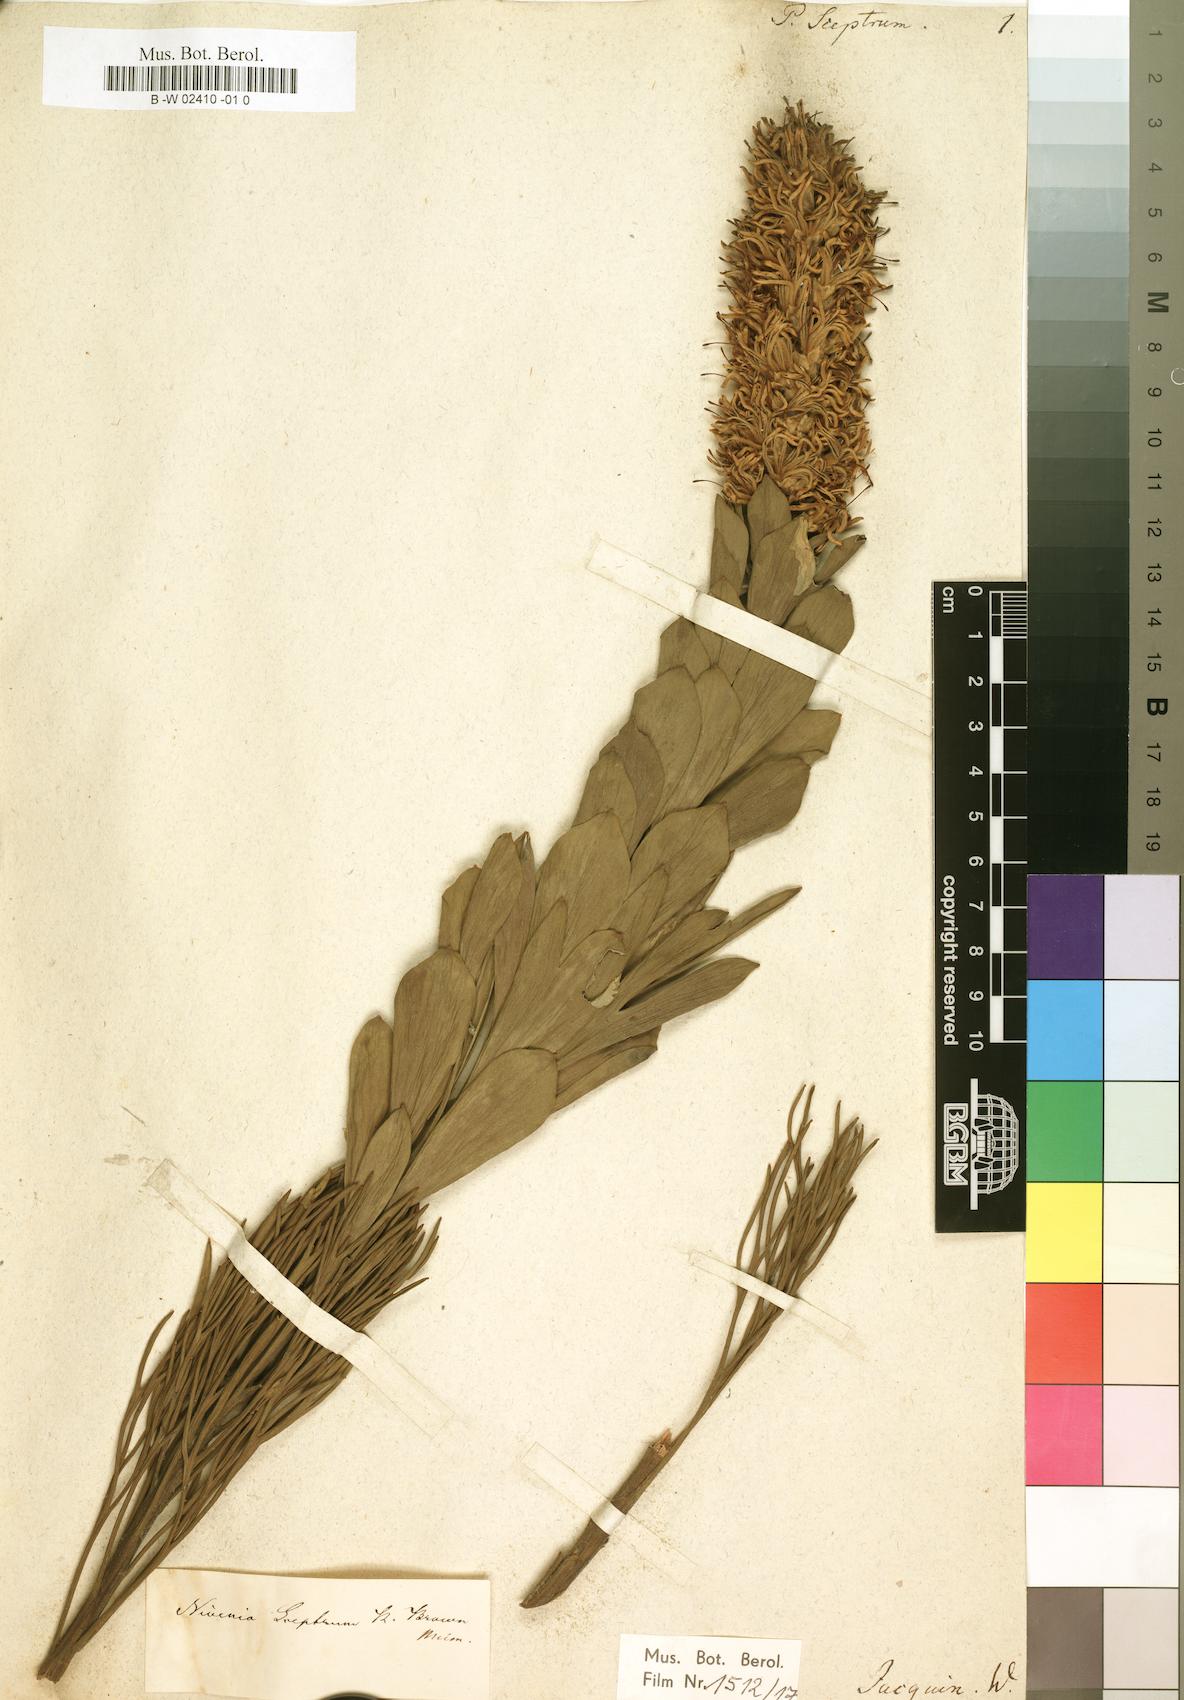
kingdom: Plantae
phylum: Tracheophyta
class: Magnoliopsida
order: Proteales
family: Proteaceae
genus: Paranomus
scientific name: Paranomus sceptrum-gustavianus
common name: King gustav's sceptre
